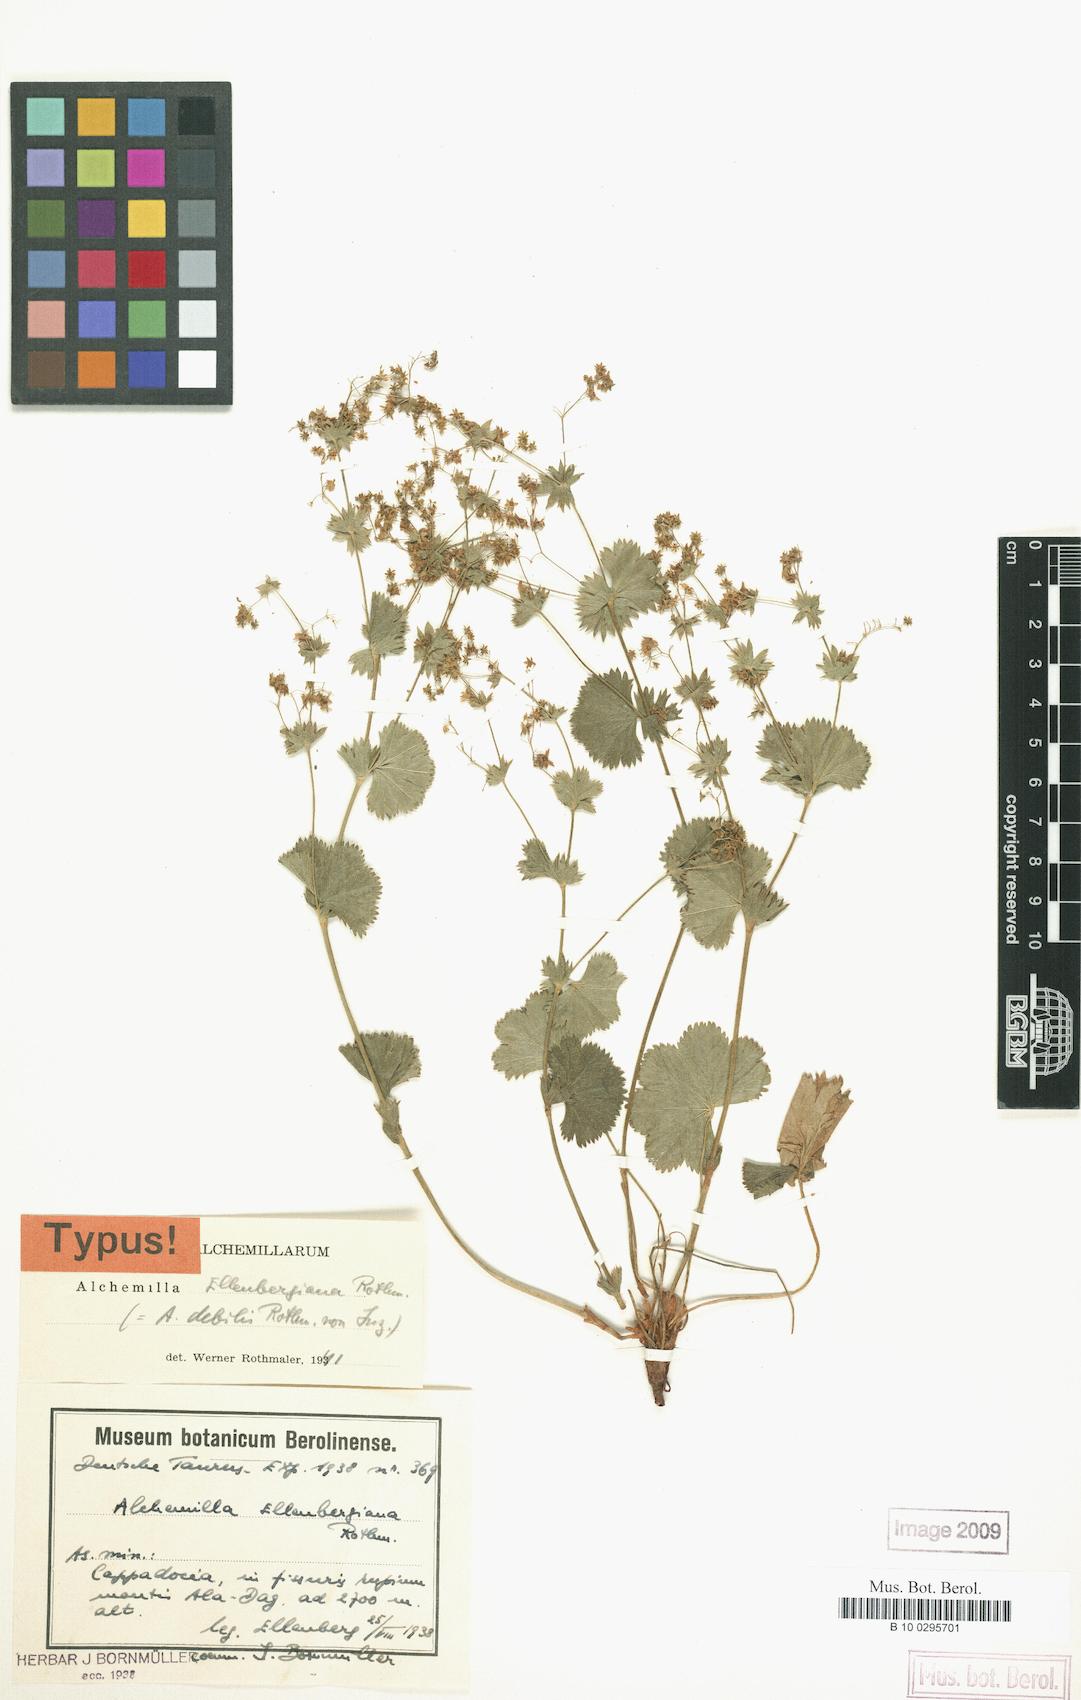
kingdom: Plantae
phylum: Tracheophyta
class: Magnoliopsida
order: Rosales
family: Rosaceae
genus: Alchemilla
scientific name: Alchemilla ellenbergiana
